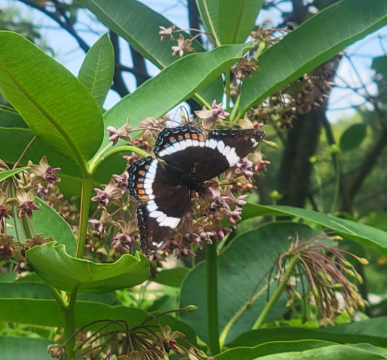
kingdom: Animalia
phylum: Arthropoda
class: Insecta
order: Lepidoptera
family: Nymphalidae
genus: Limenitis
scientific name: Limenitis arthemis
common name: Red-spotted Admiral
